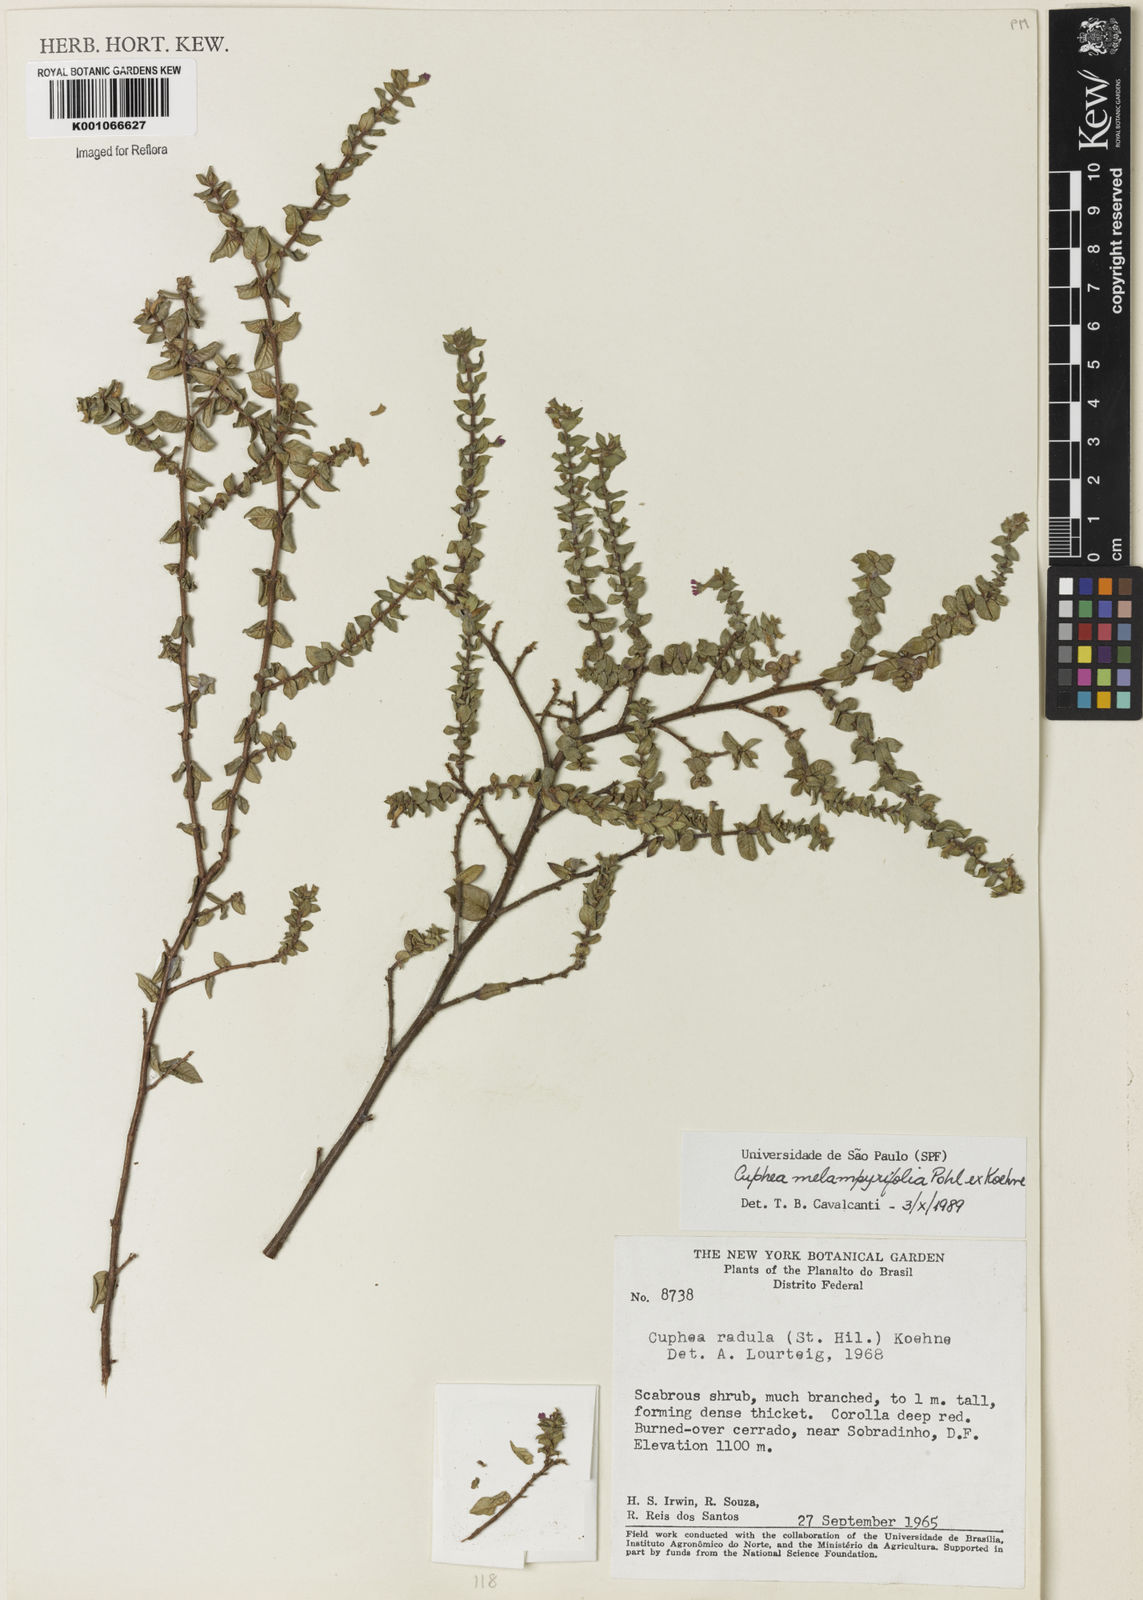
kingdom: Plantae
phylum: Tracheophyta
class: Magnoliopsida
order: Myrtales
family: Lythraceae
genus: Cuphea
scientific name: Cuphea antisyphilitica
